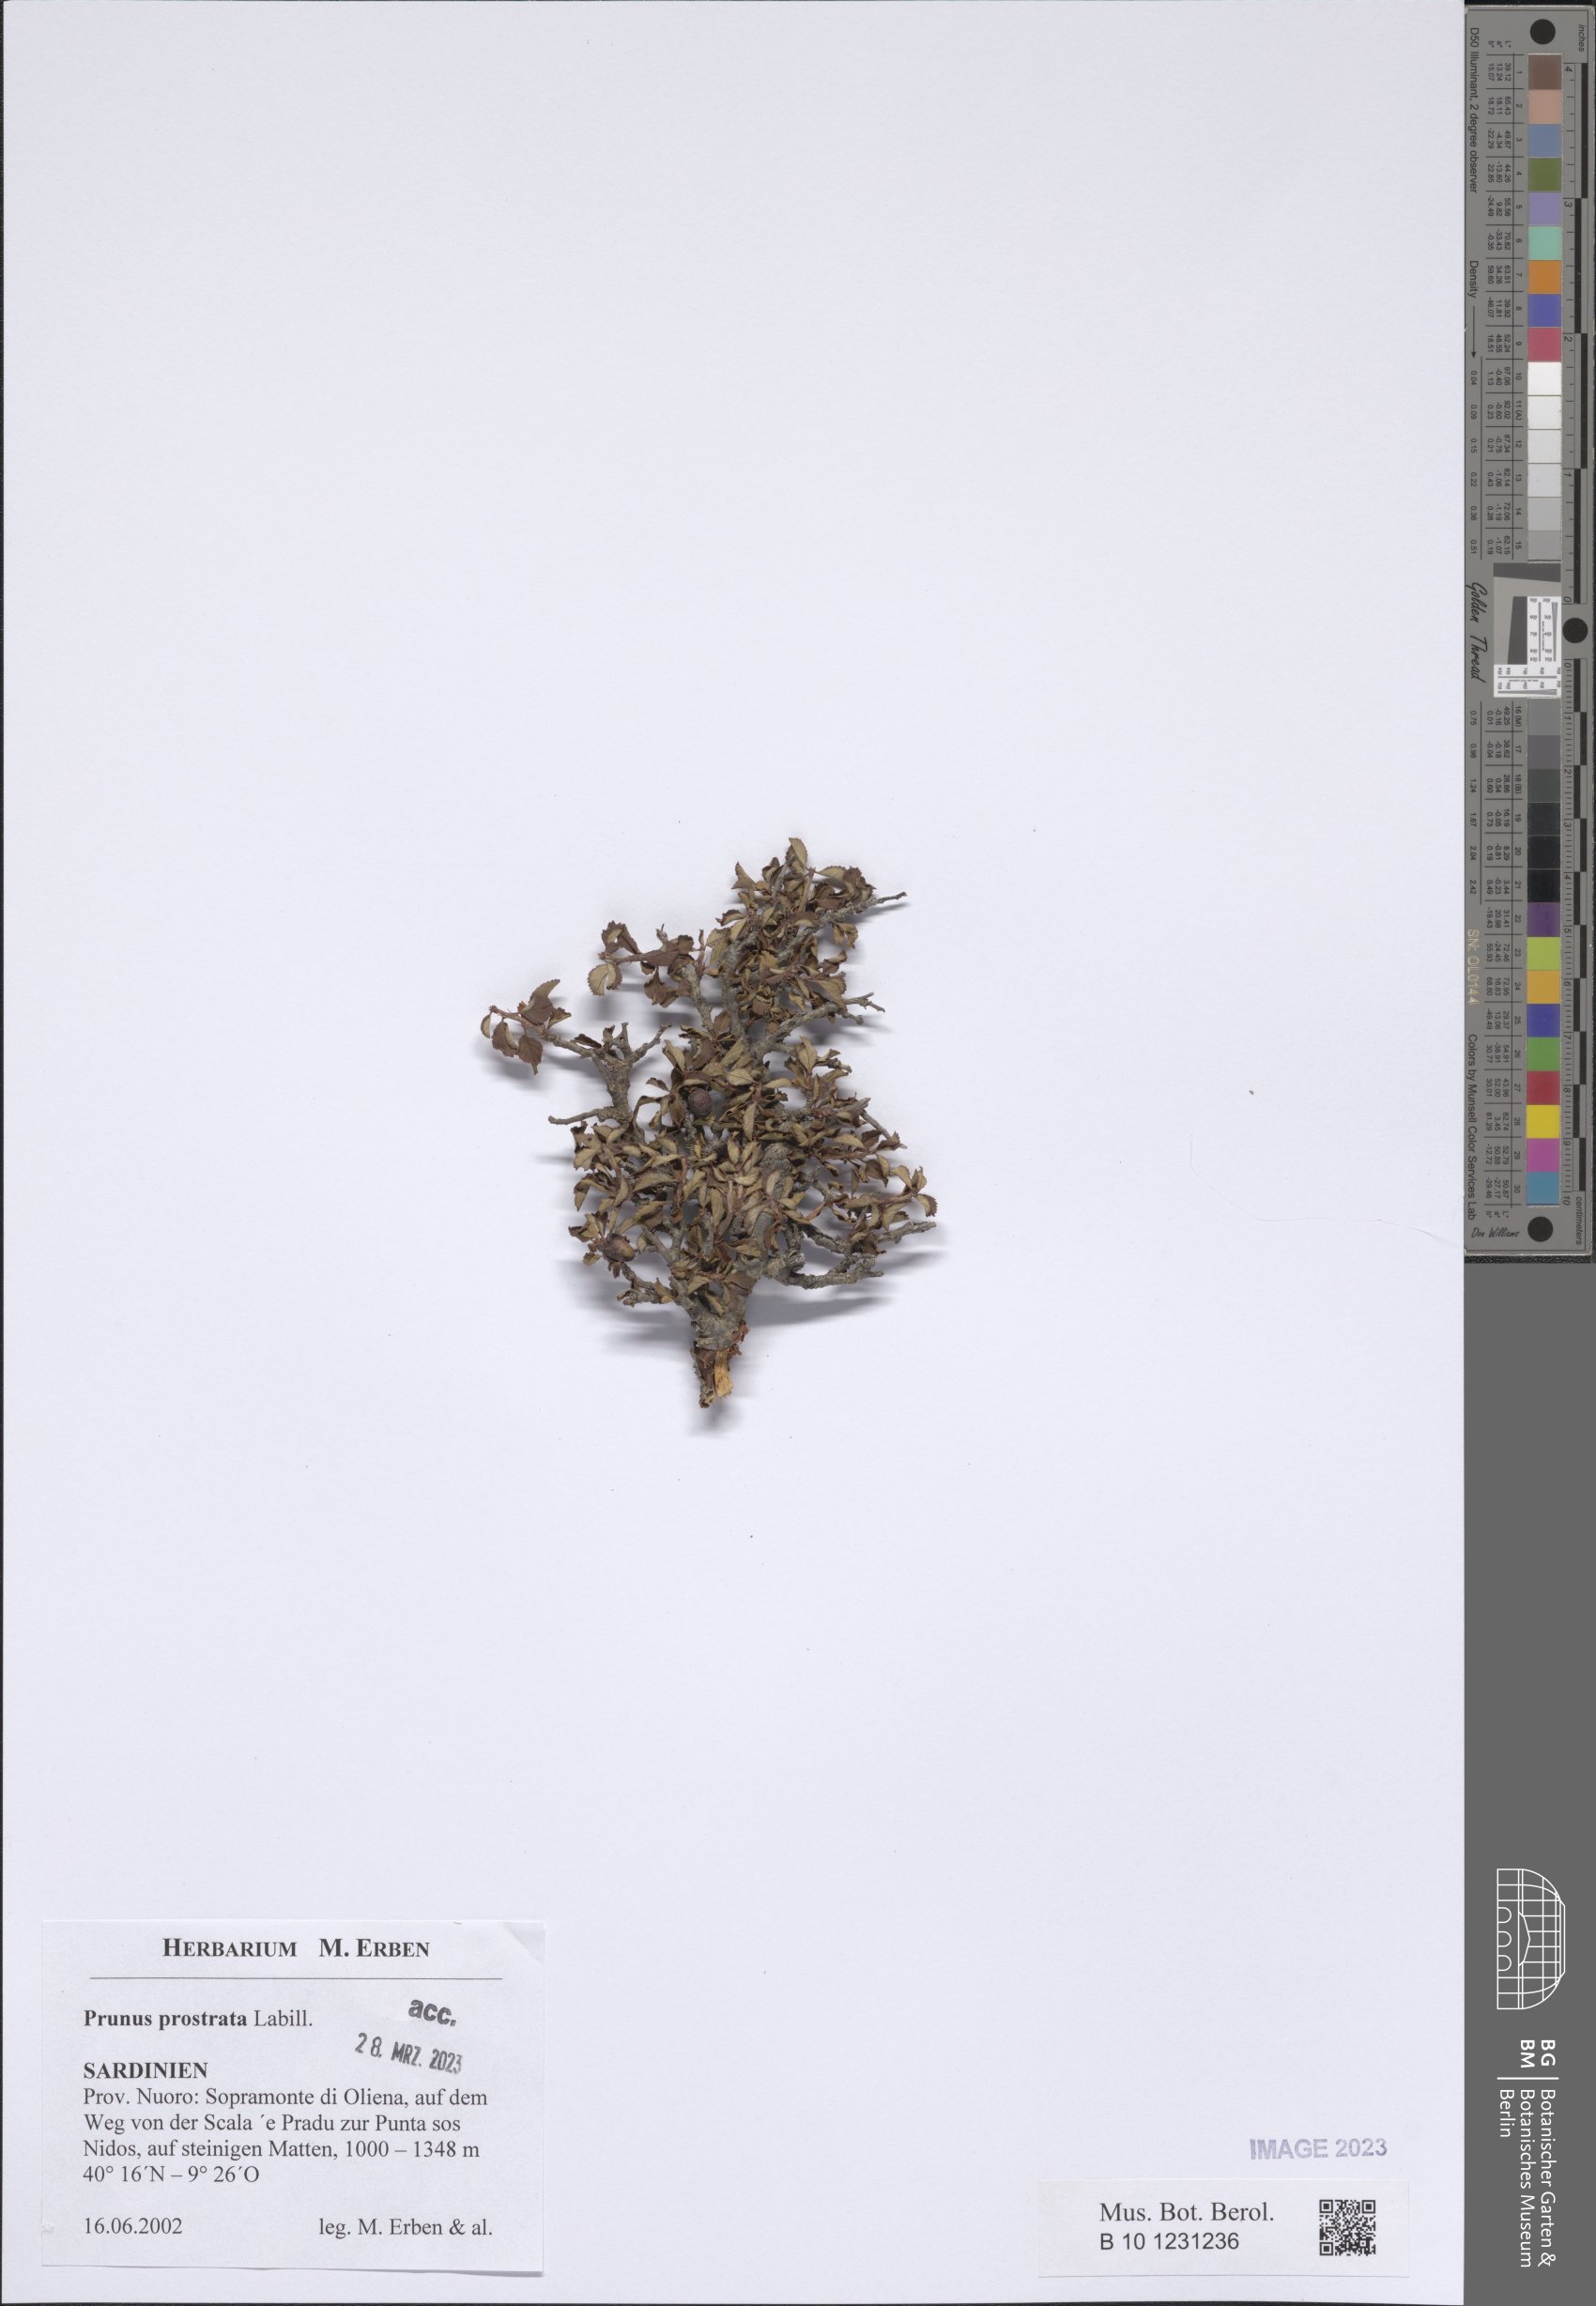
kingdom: Plantae
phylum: Tracheophyta
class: Magnoliopsida
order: Rosales
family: Rosaceae
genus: Prunus
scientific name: Prunus prostrata
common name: Mountain cherry
